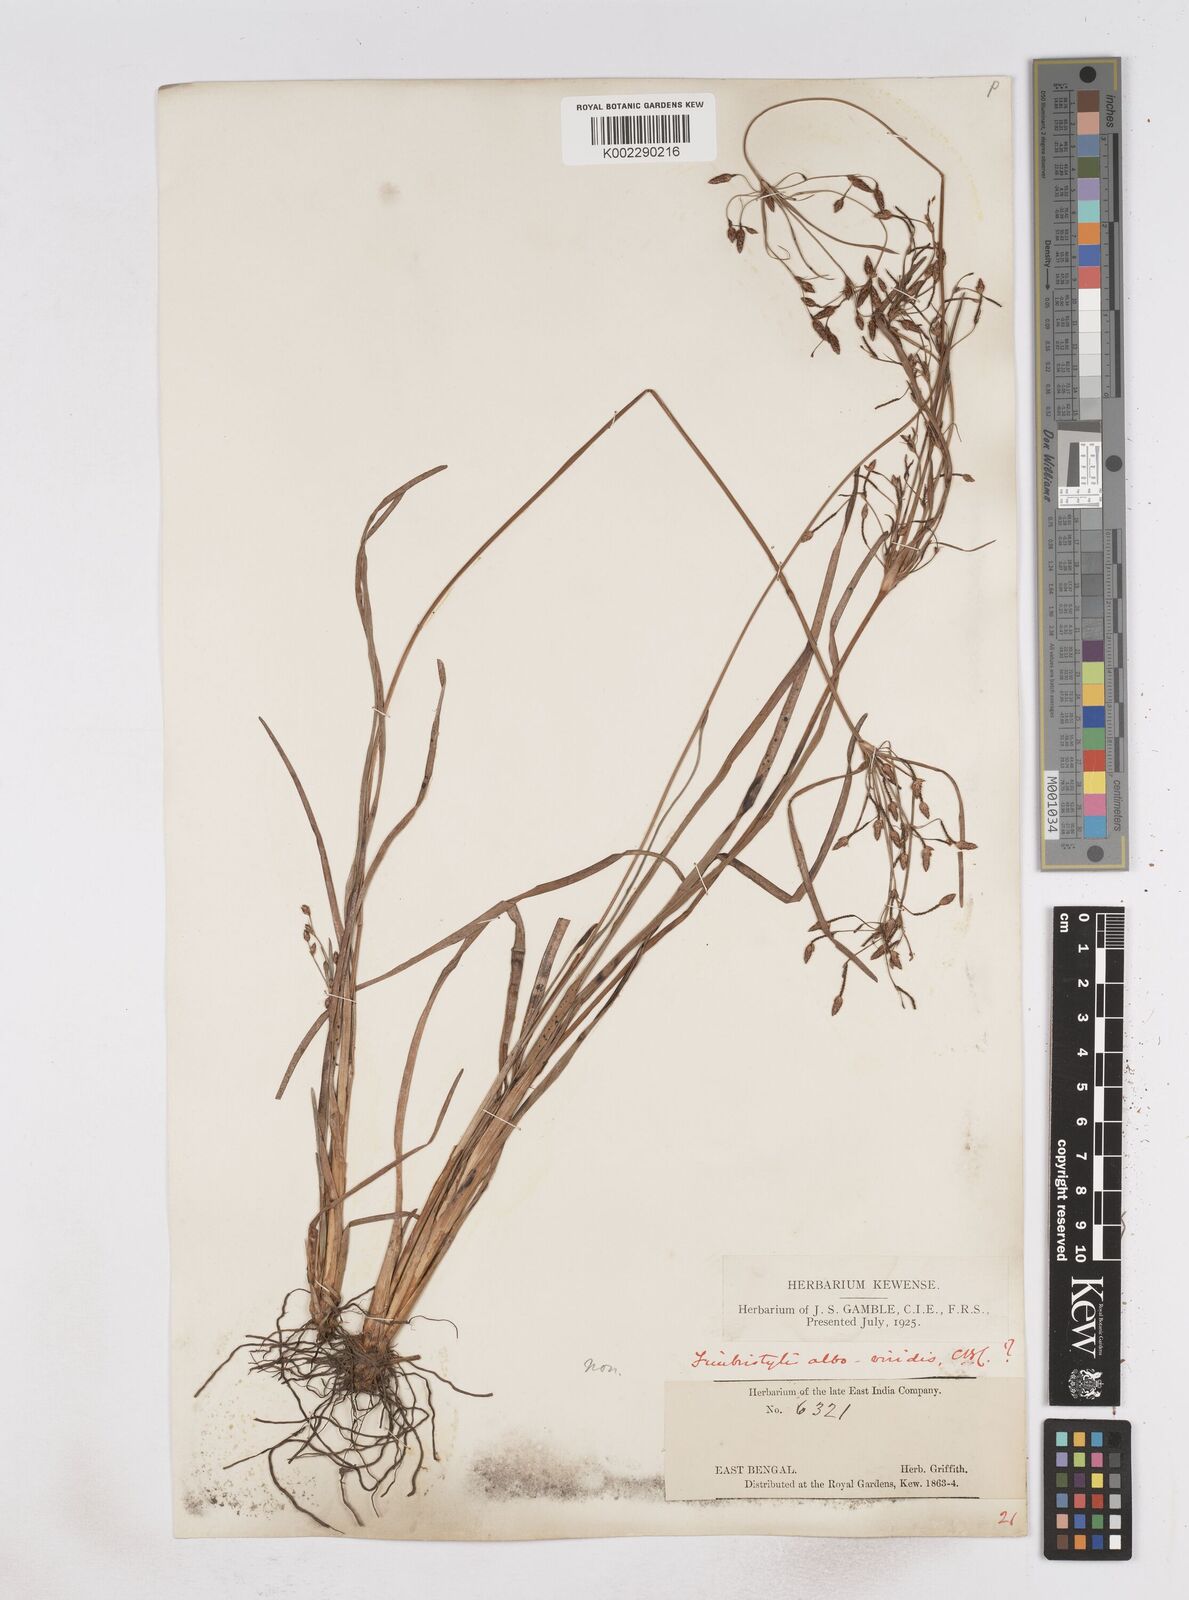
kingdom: Plantae
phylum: Tracheophyta
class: Liliopsida
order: Poales
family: Cyperaceae
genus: Fimbristylis
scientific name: Fimbristylis
